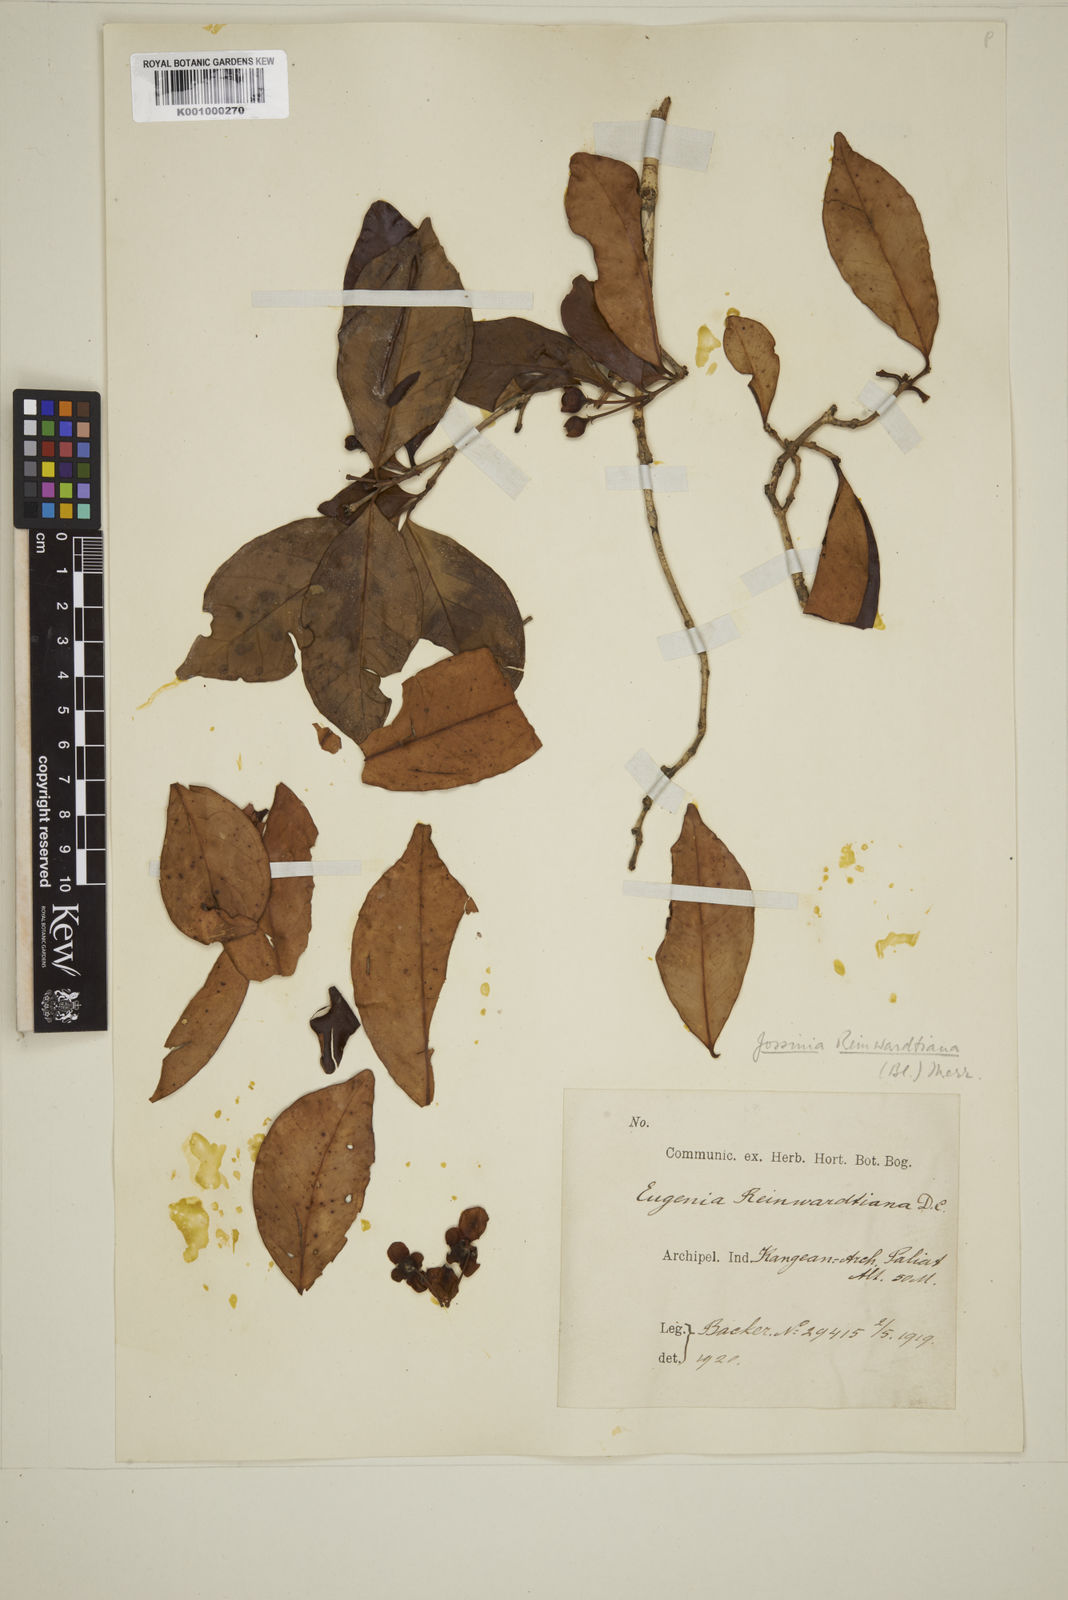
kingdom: Plantae
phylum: Tracheophyta
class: Magnoliopsida
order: Myrtales
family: Myrtaceae
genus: Eugenia
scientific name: Eugenia reinwardtiana
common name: Cedar bay-cherry
